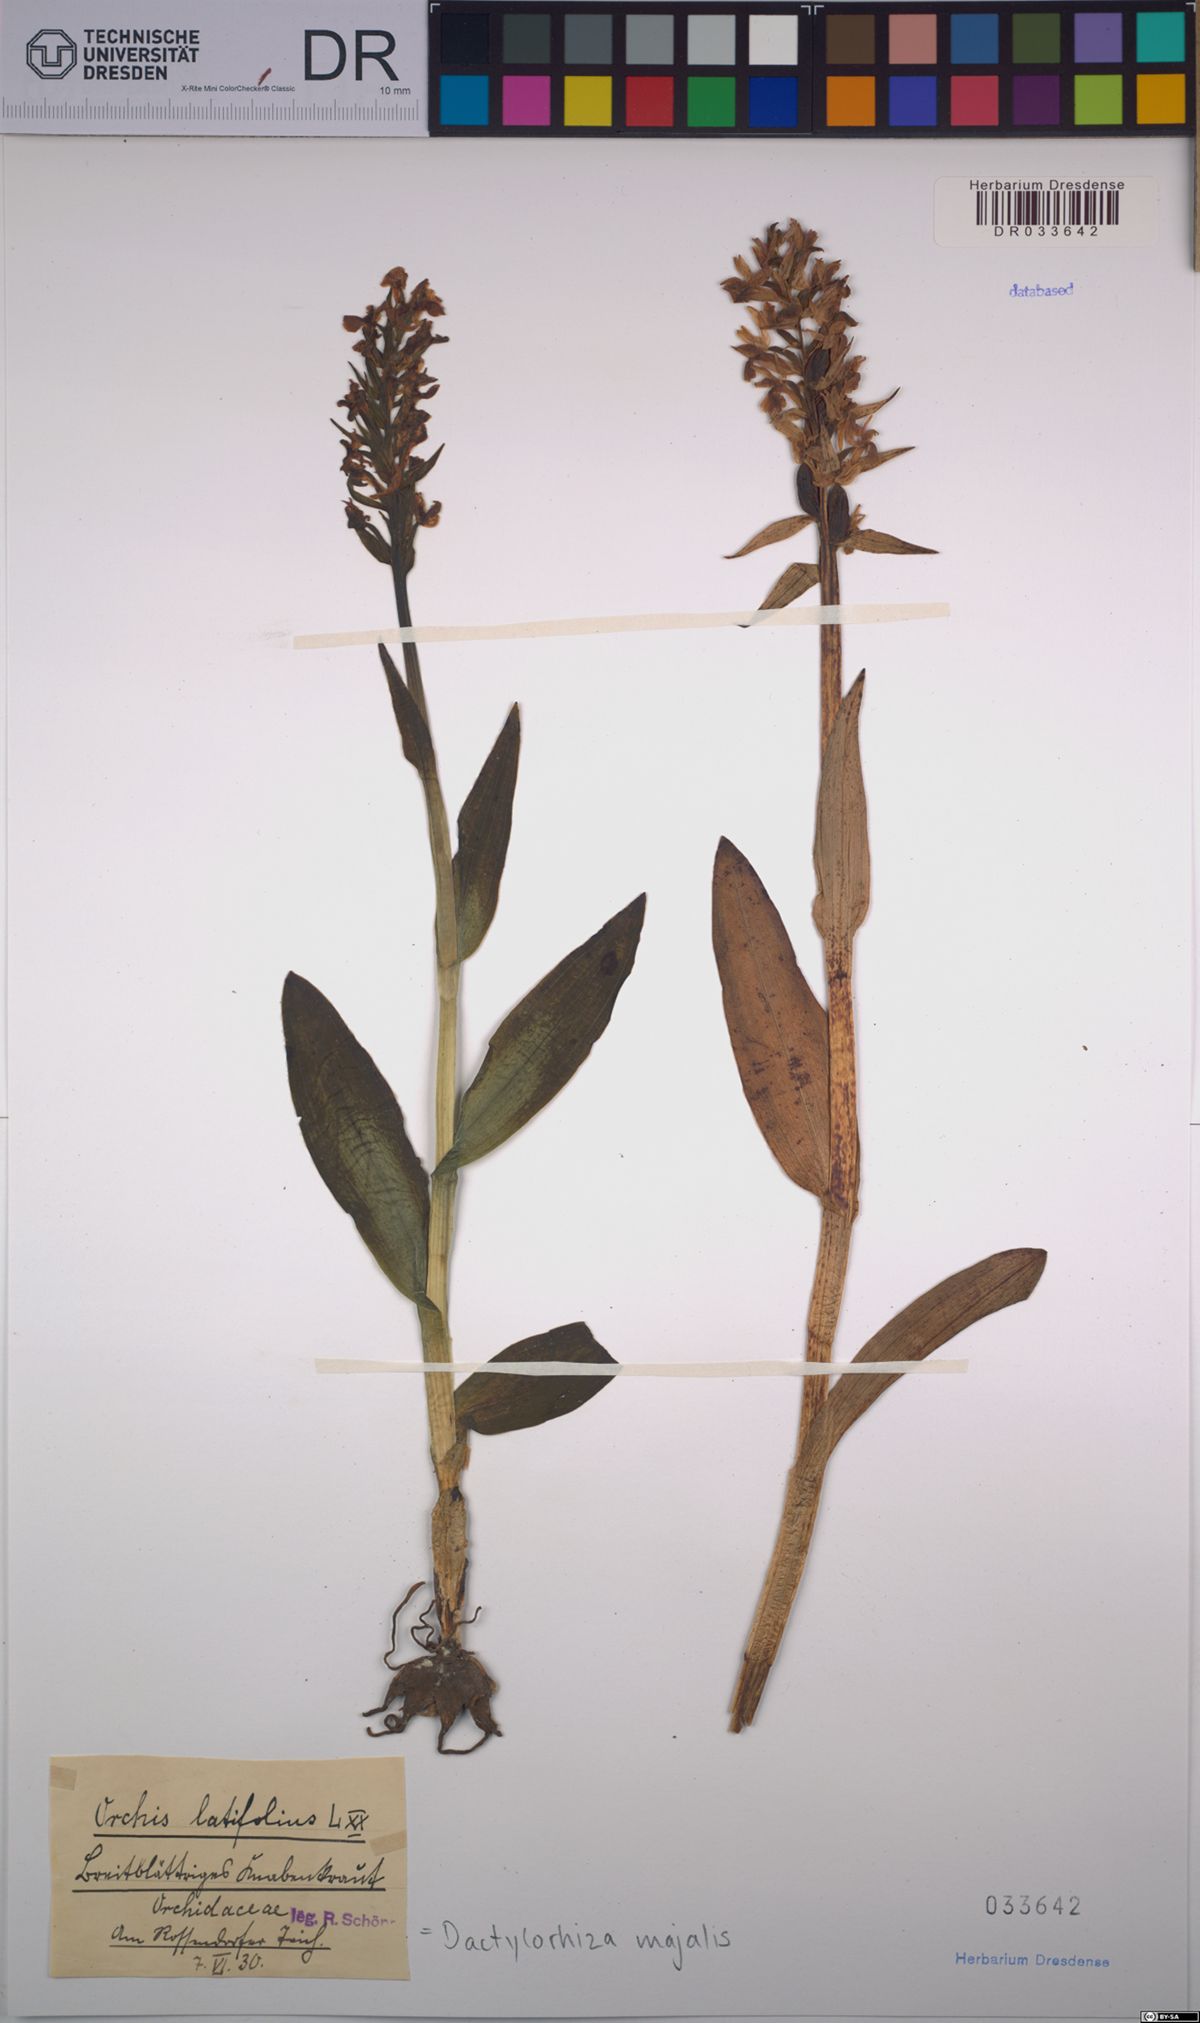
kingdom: Plantae
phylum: Tracheophyta
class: Liliopsida
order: Asparagales
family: Orchidaceae
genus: Dactylorhiza
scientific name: Dactylorhiza majalis
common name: Marsh orchid
